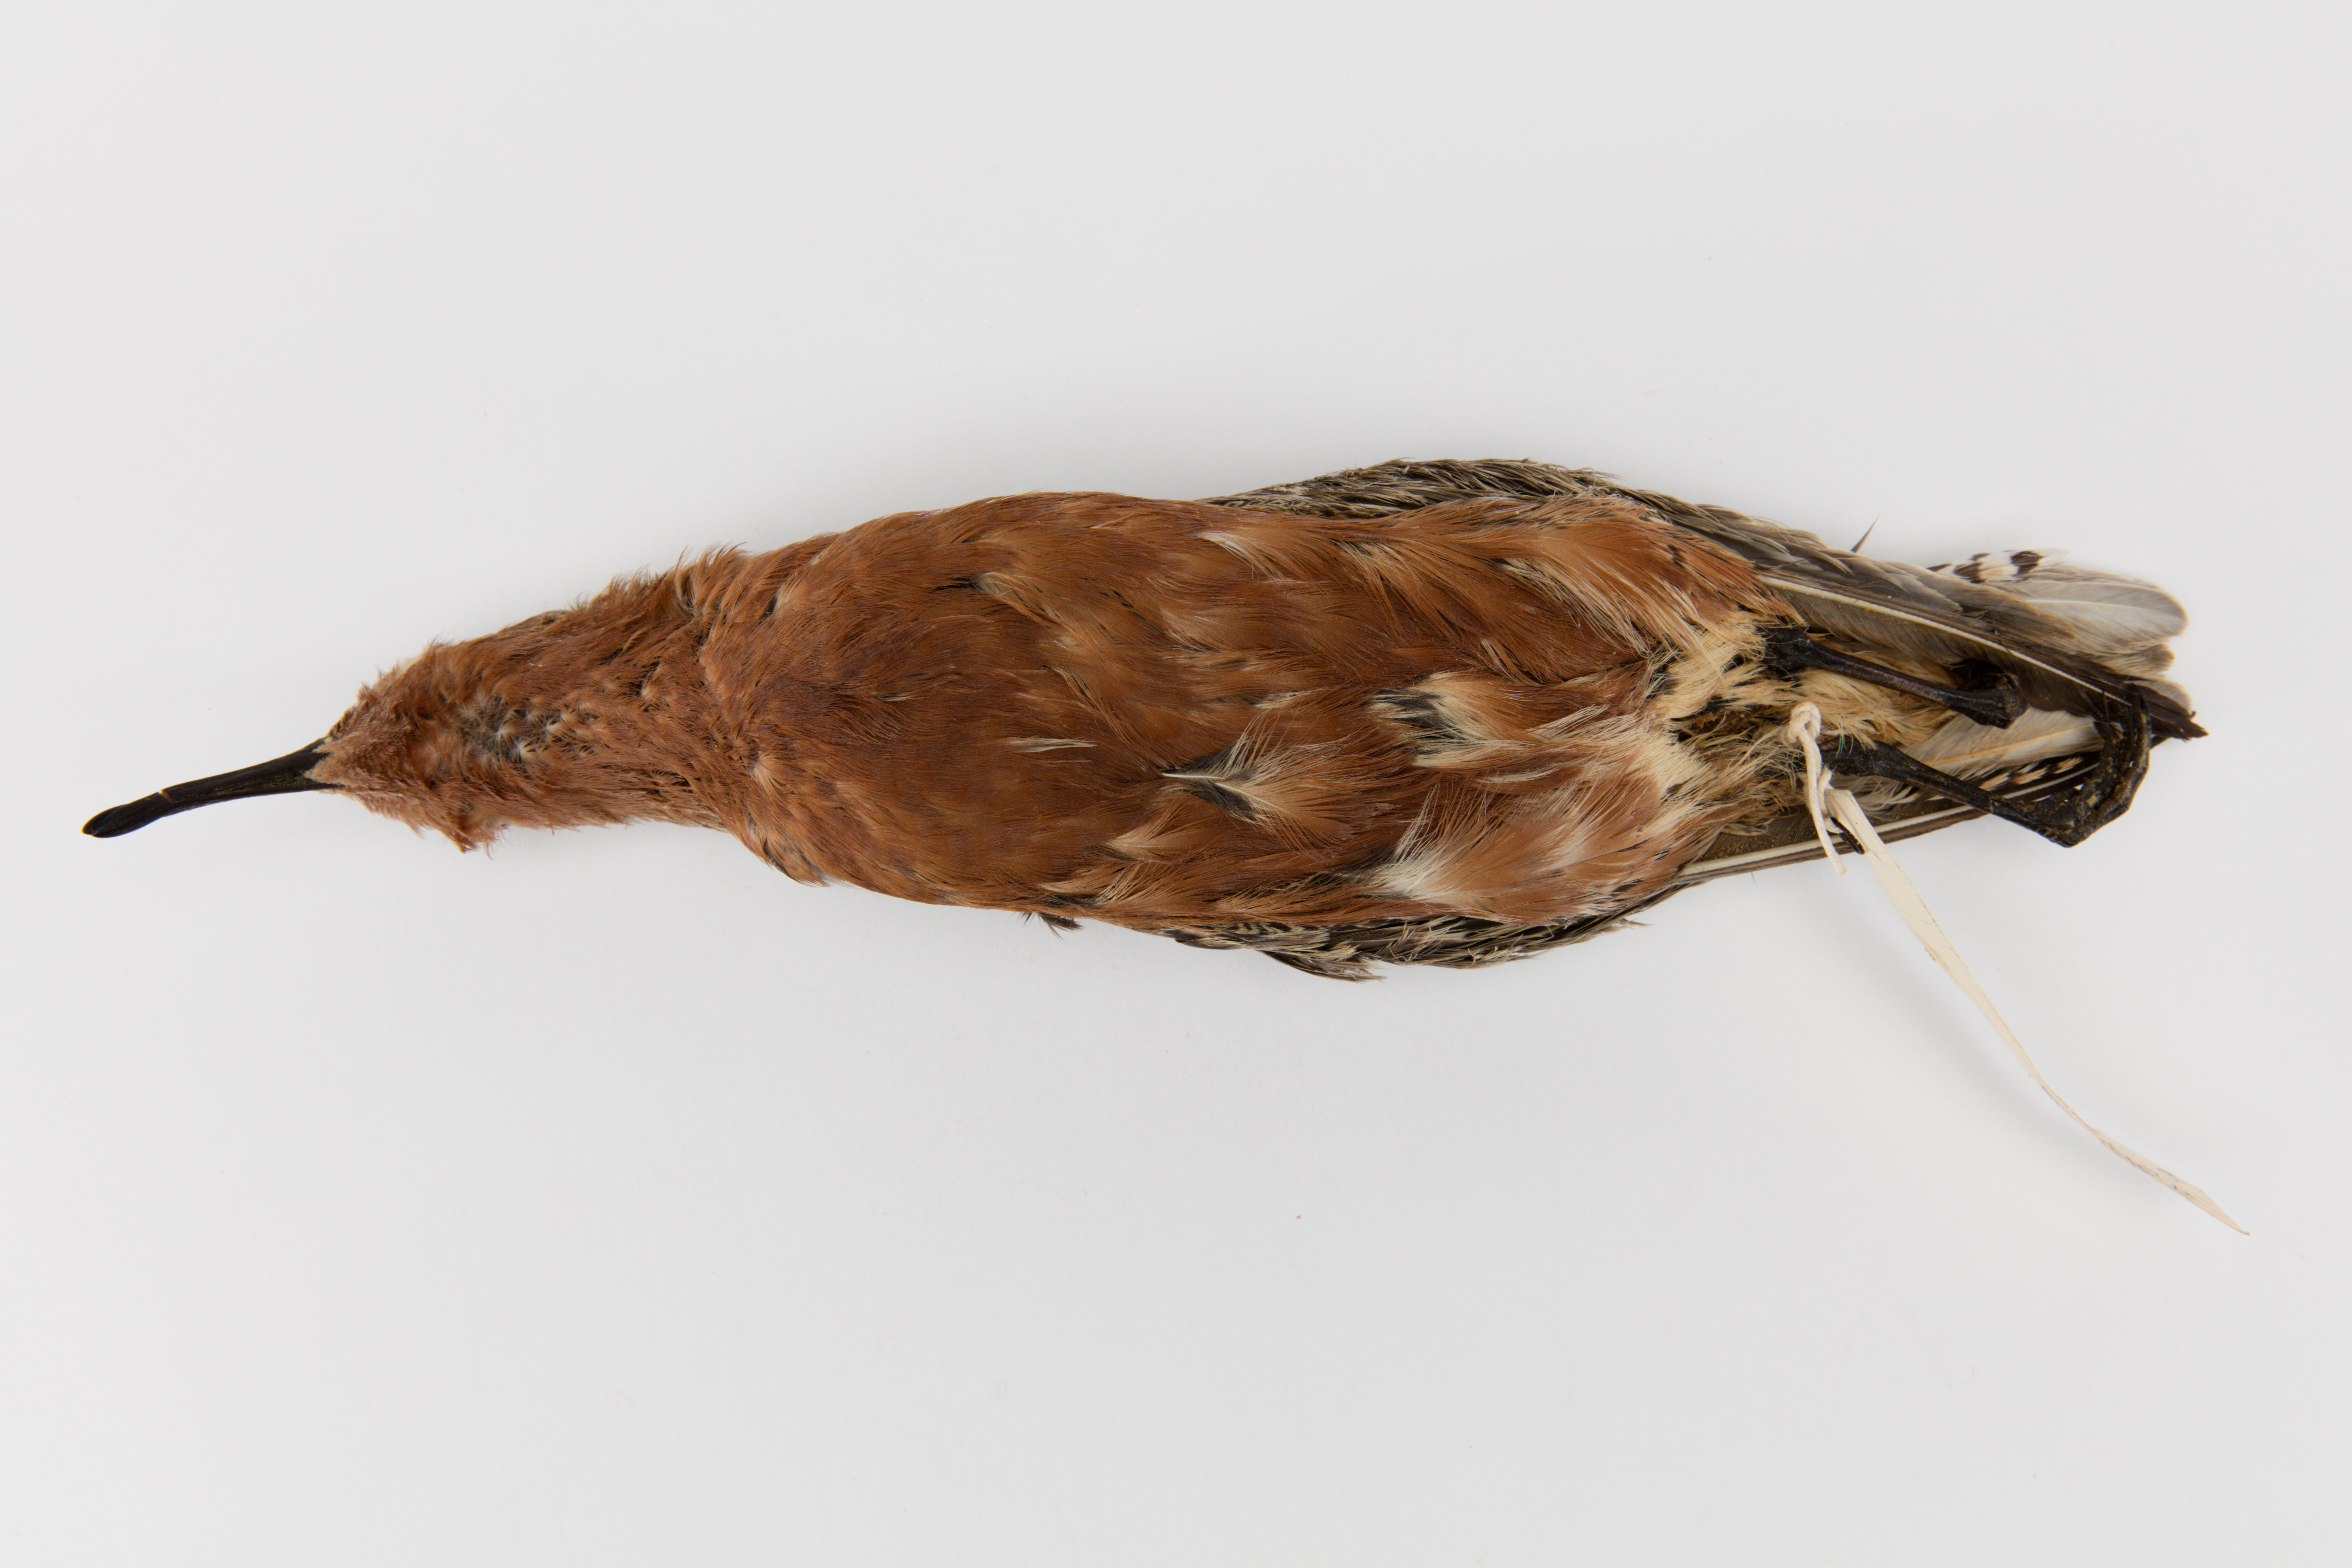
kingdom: Animalia
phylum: Chordata
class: Aves
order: Charadriiformes
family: Scolopacidae
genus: Calidris
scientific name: Calidris canutus
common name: Red knot
